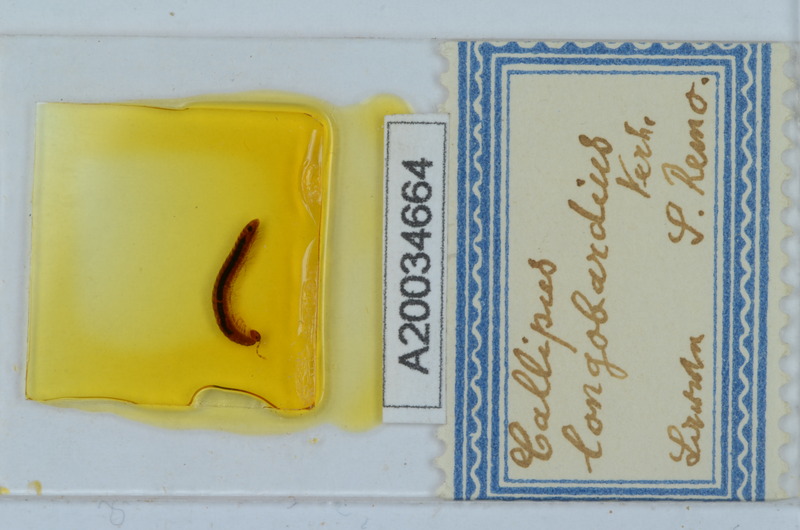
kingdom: Animalia
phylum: Arthropoda
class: Arachnida
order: Sarcoptiformes
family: Scheloribatidae
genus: Scheloribates
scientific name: Scheloribates
